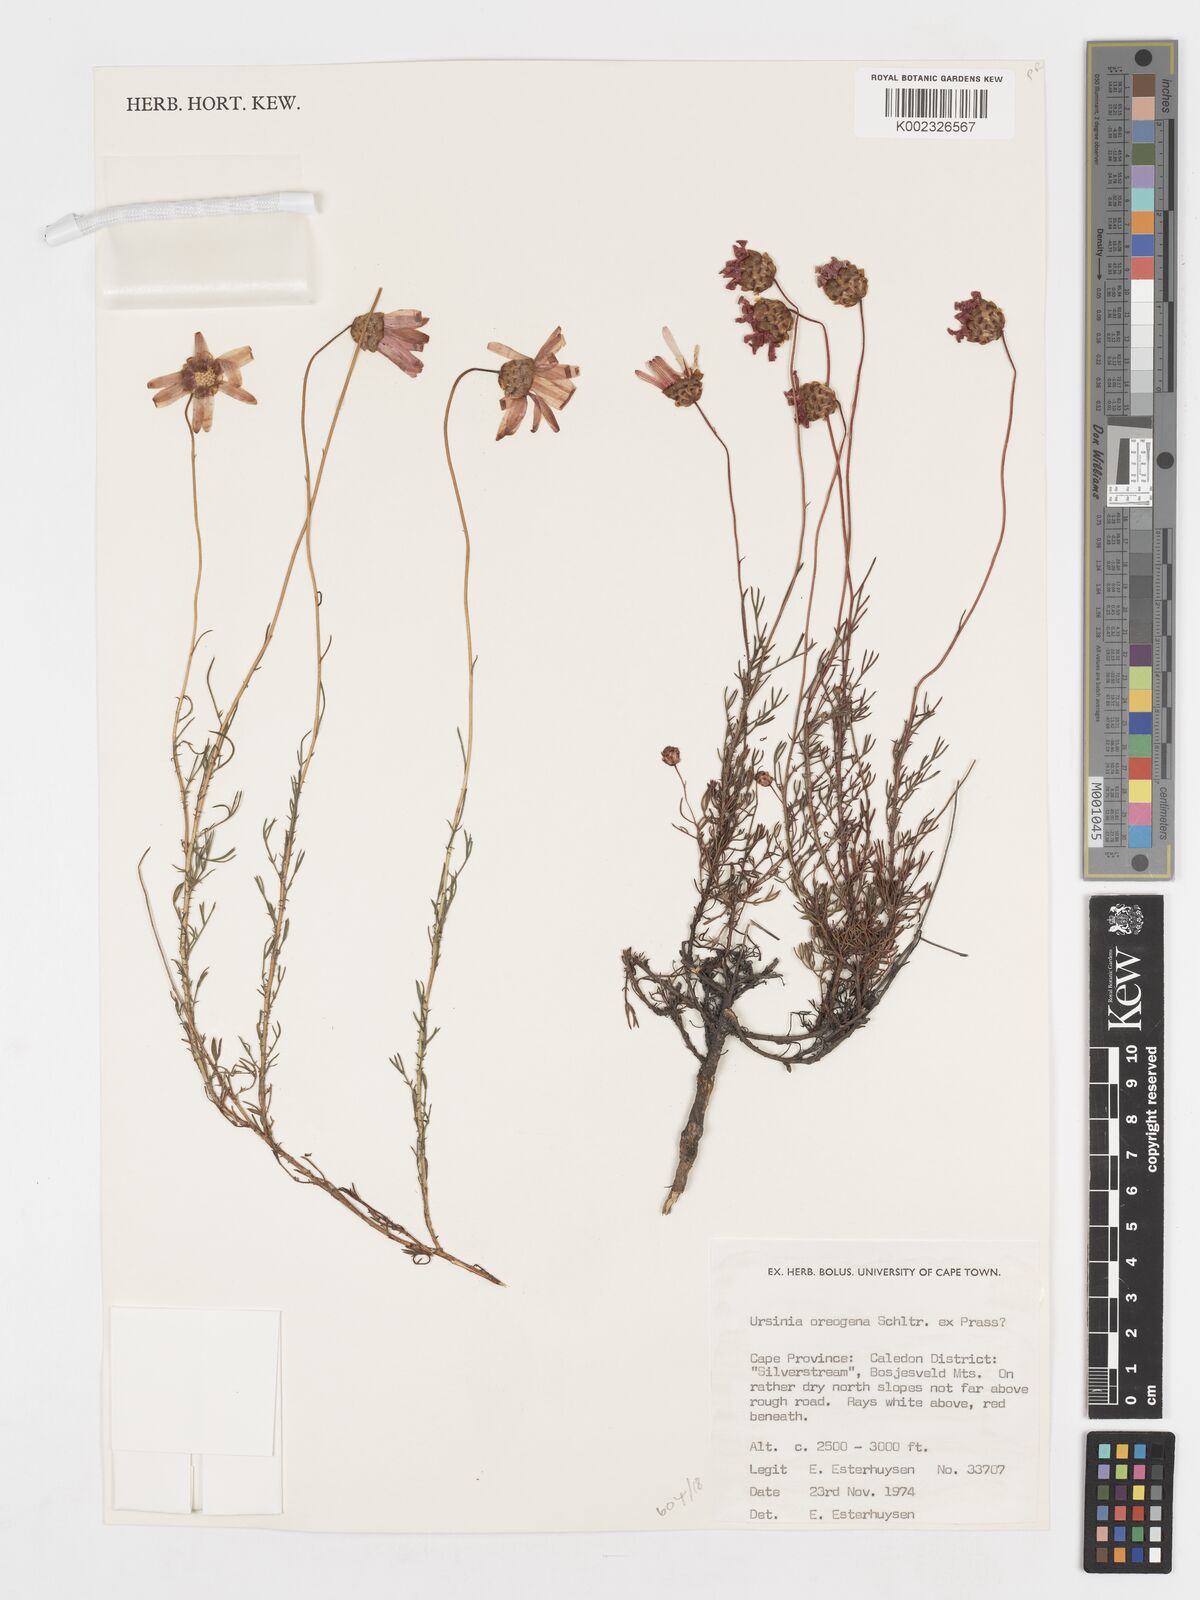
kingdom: Plantae
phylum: Tracheophyta
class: Magnoliopsida
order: Asterales
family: Asteraceae
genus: Ursinia
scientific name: Ursinia oreogena
